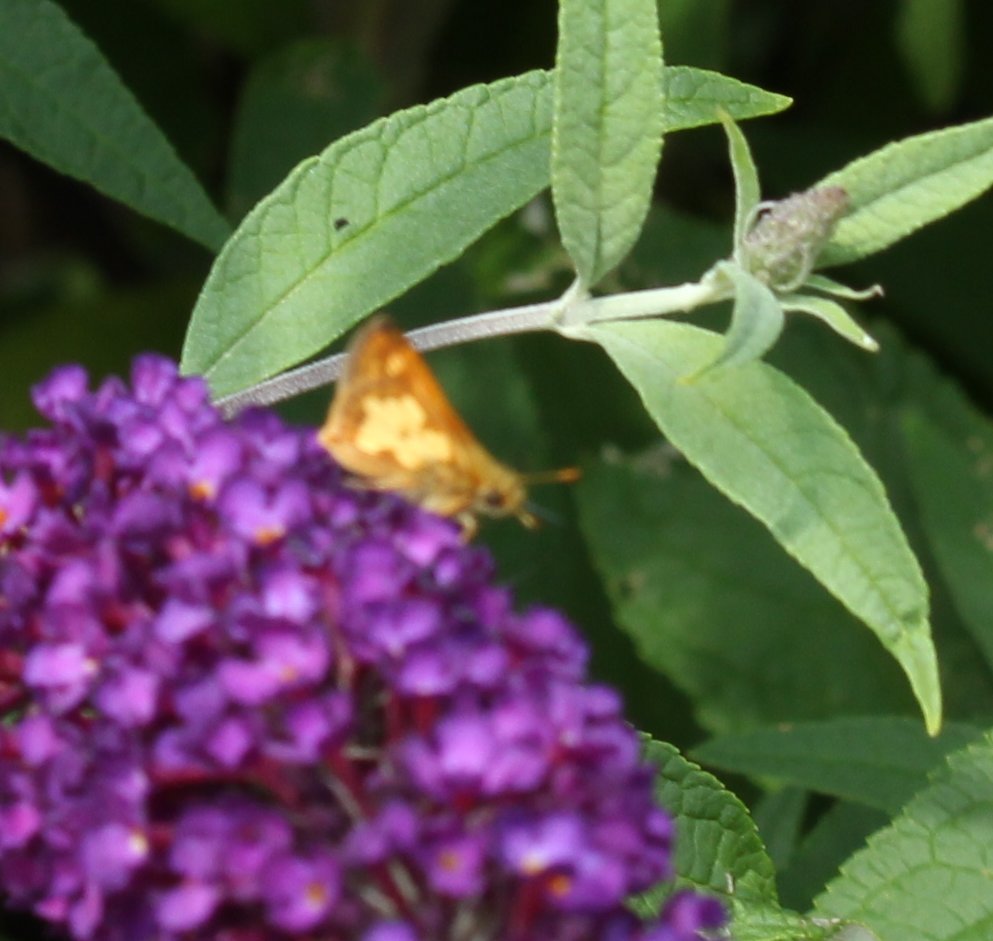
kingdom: Animalia
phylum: Arthropoda
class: Insecta
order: Lepidoptera
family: Hesperiidae
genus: Polites
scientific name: Polites coras
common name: Peck's Skipper
